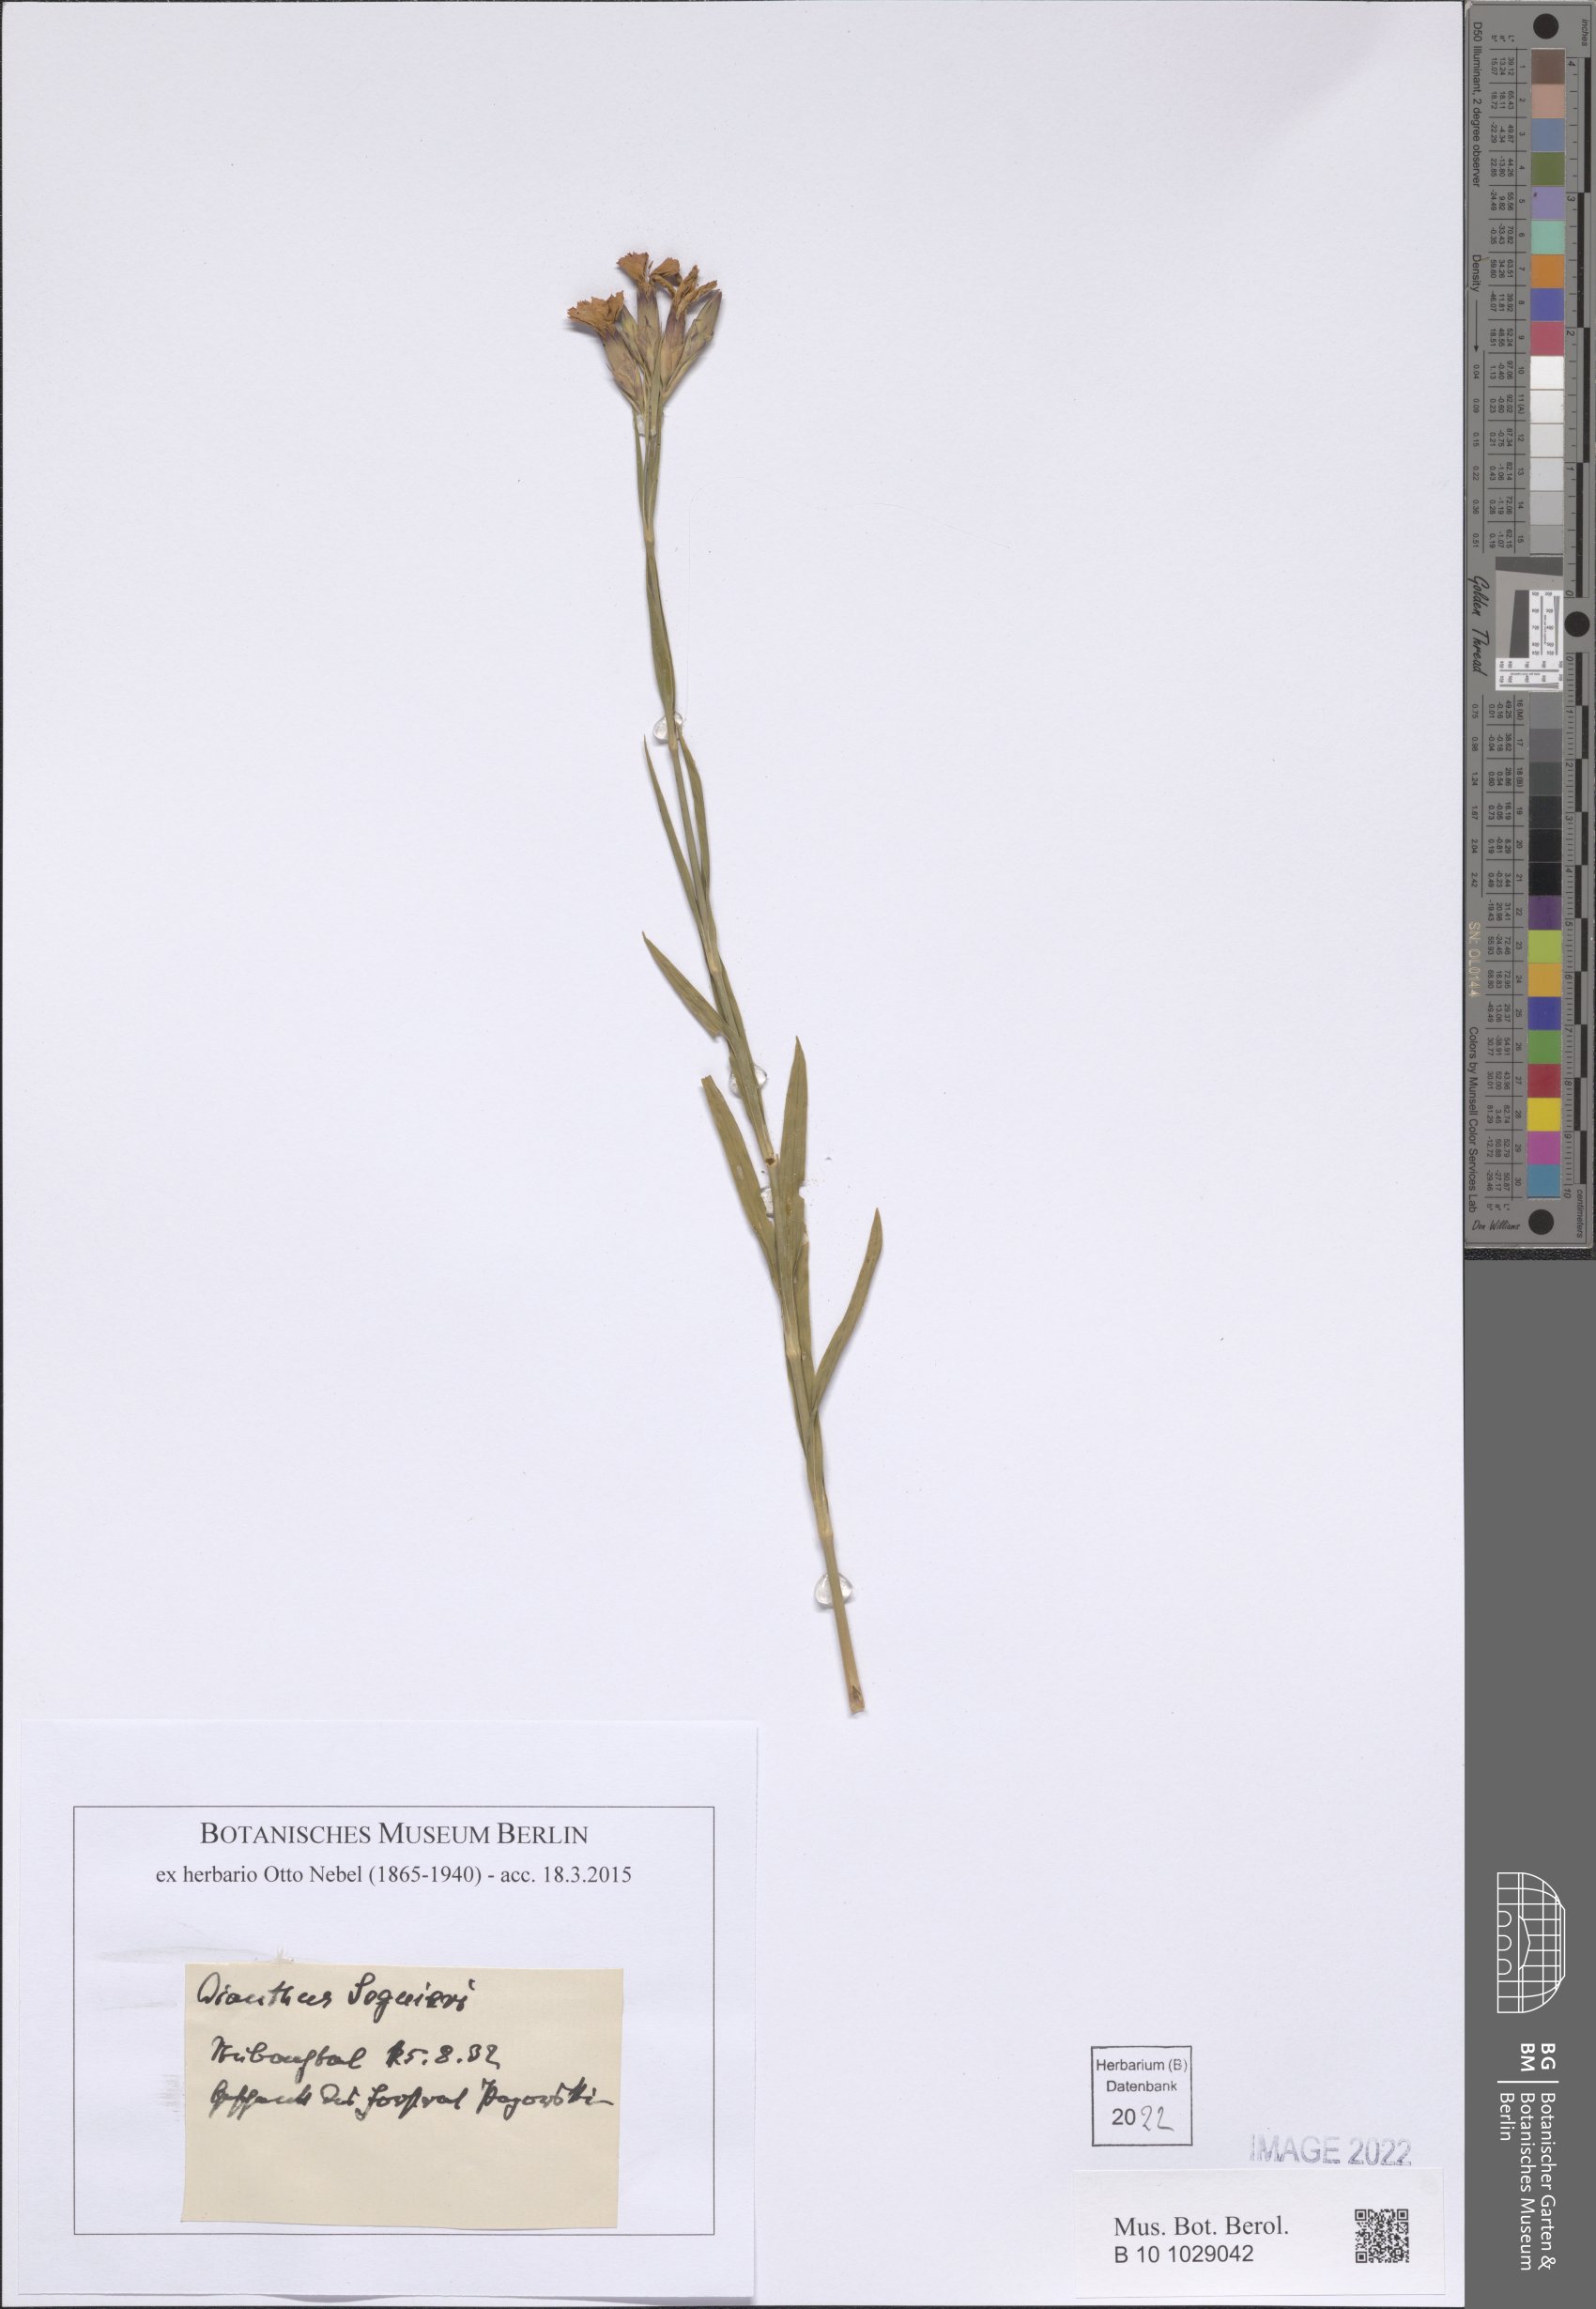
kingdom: Plantae
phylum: Tracheophyta
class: Magnoliopsida
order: Caryophyllales
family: Caryophyllaceae
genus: Dianthus
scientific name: Dianthus seguieri
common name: Ragged pink
